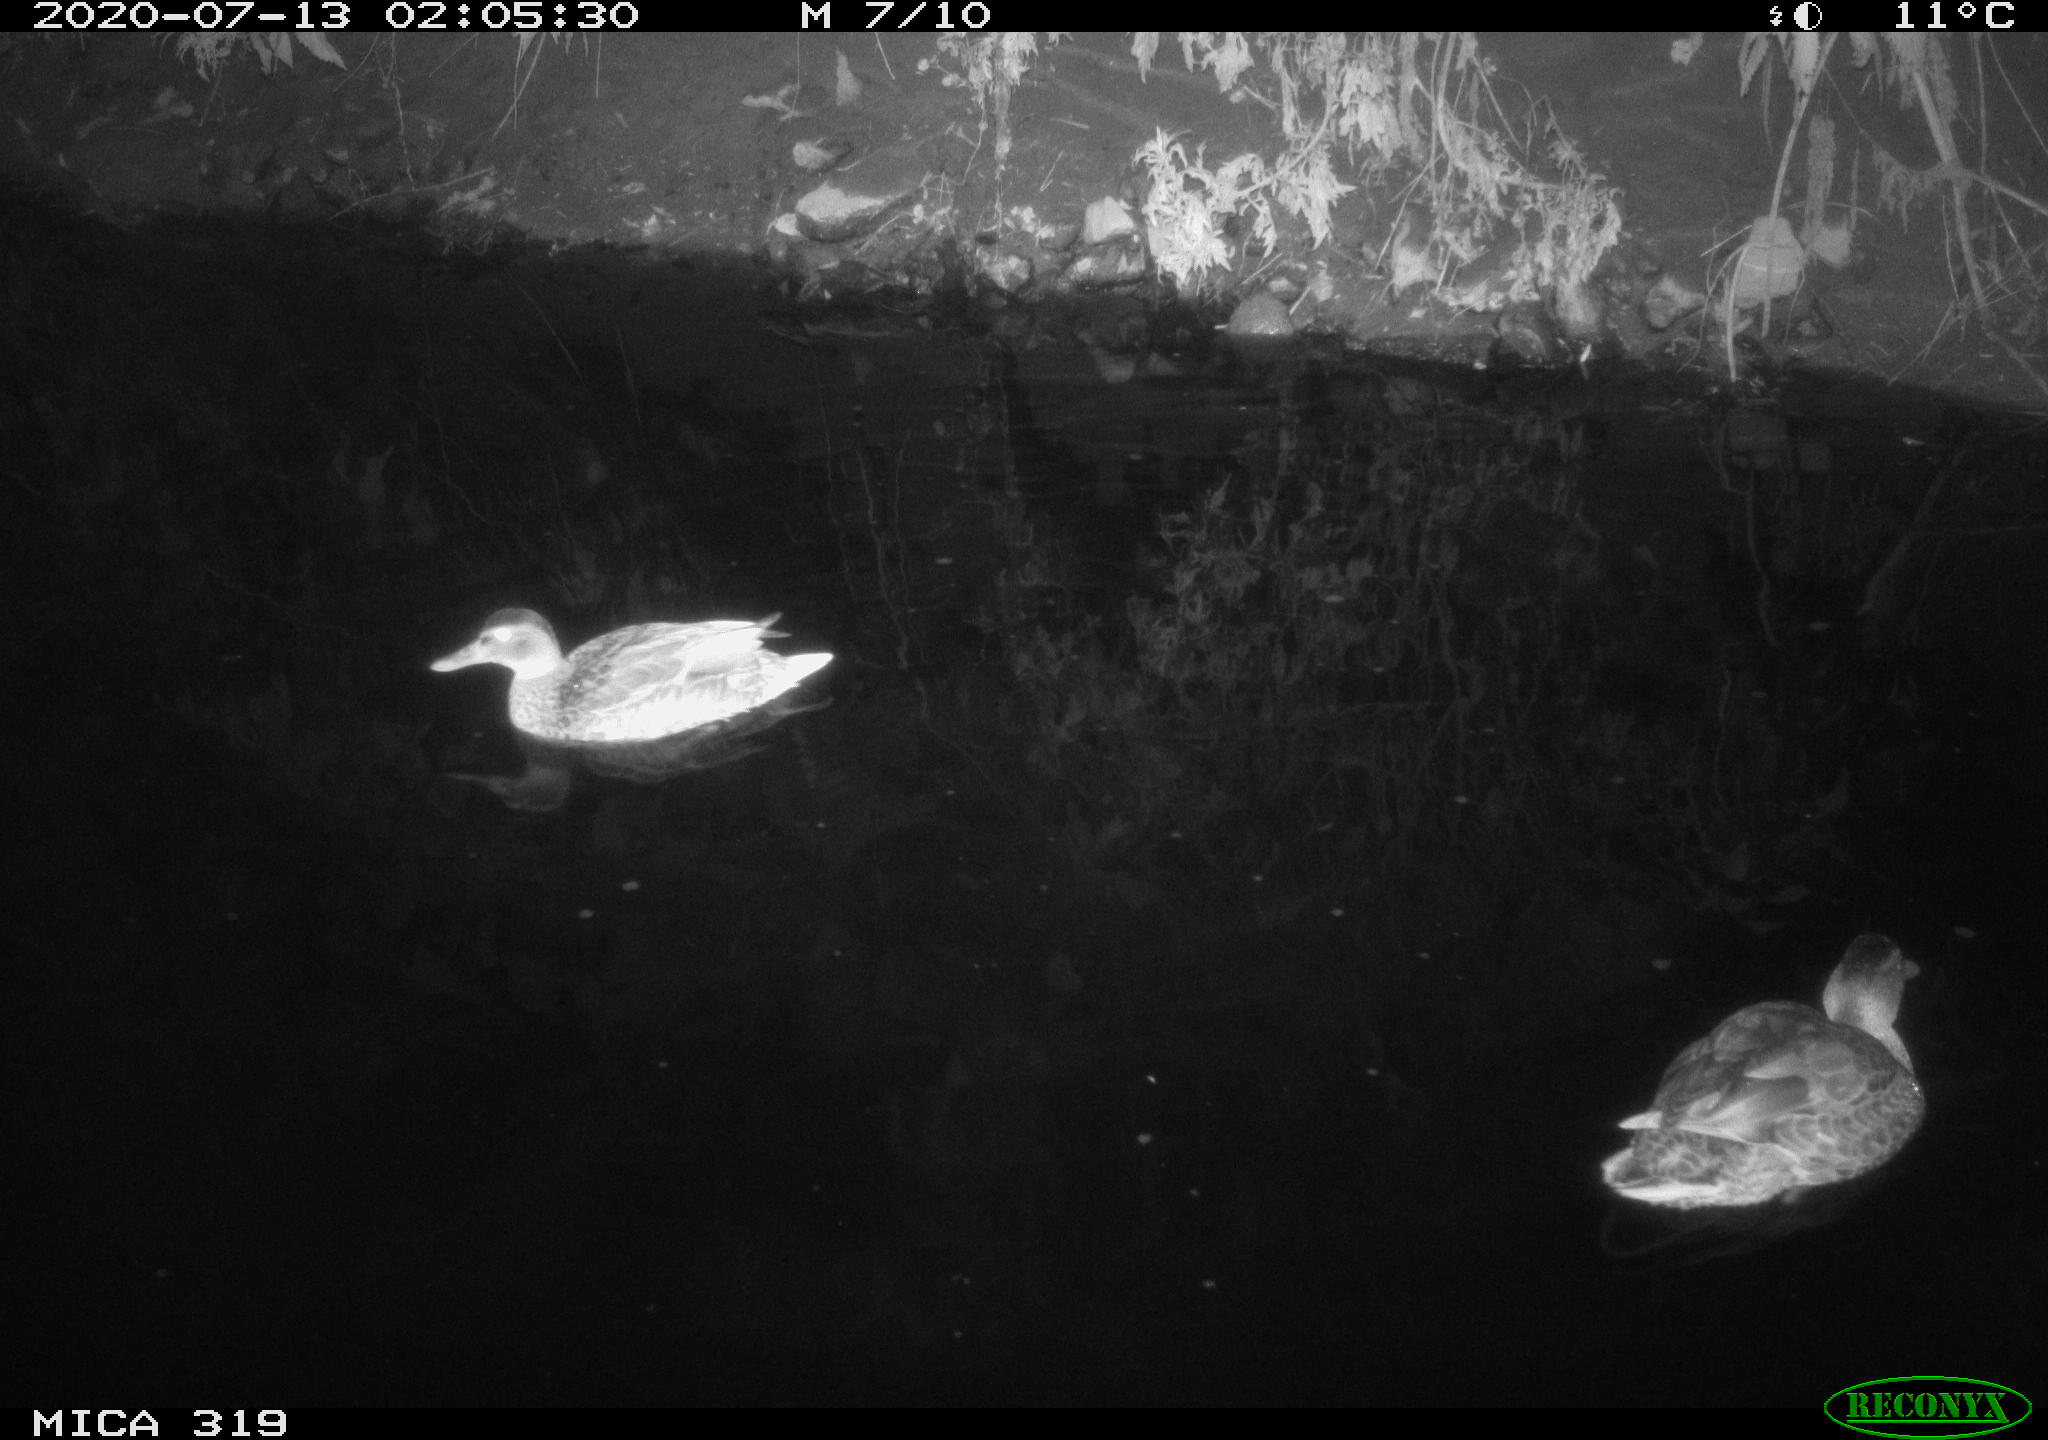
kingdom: Animalia
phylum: Chordata
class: Aves
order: Anseriformes
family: Anatidae
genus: Anas
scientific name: Anas platyrhynchos
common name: Mallard
